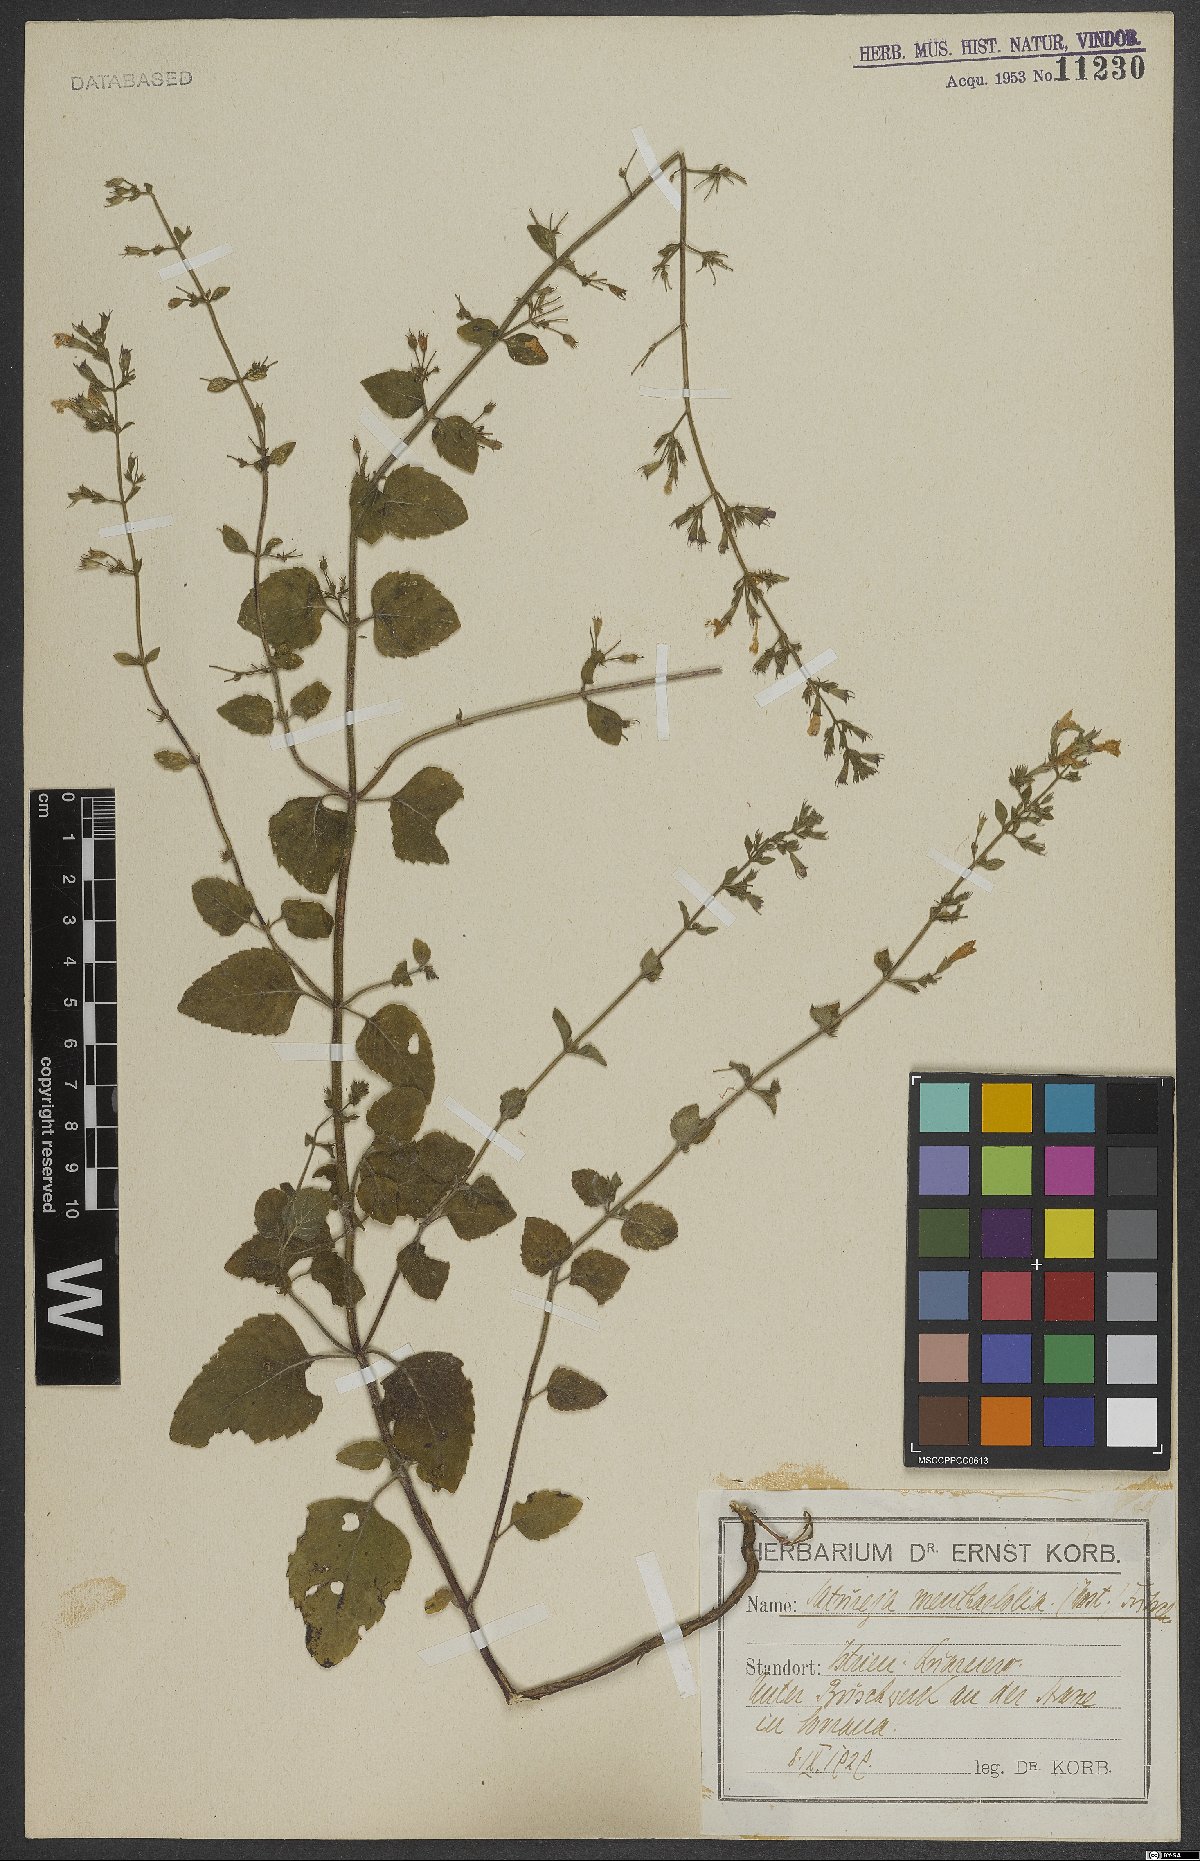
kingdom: Plantae
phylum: Tracheophyta
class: Magnoliopsida
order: Lamiales
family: Lamiaceae
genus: Clinopodium
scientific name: Clinopodium menthifolium
